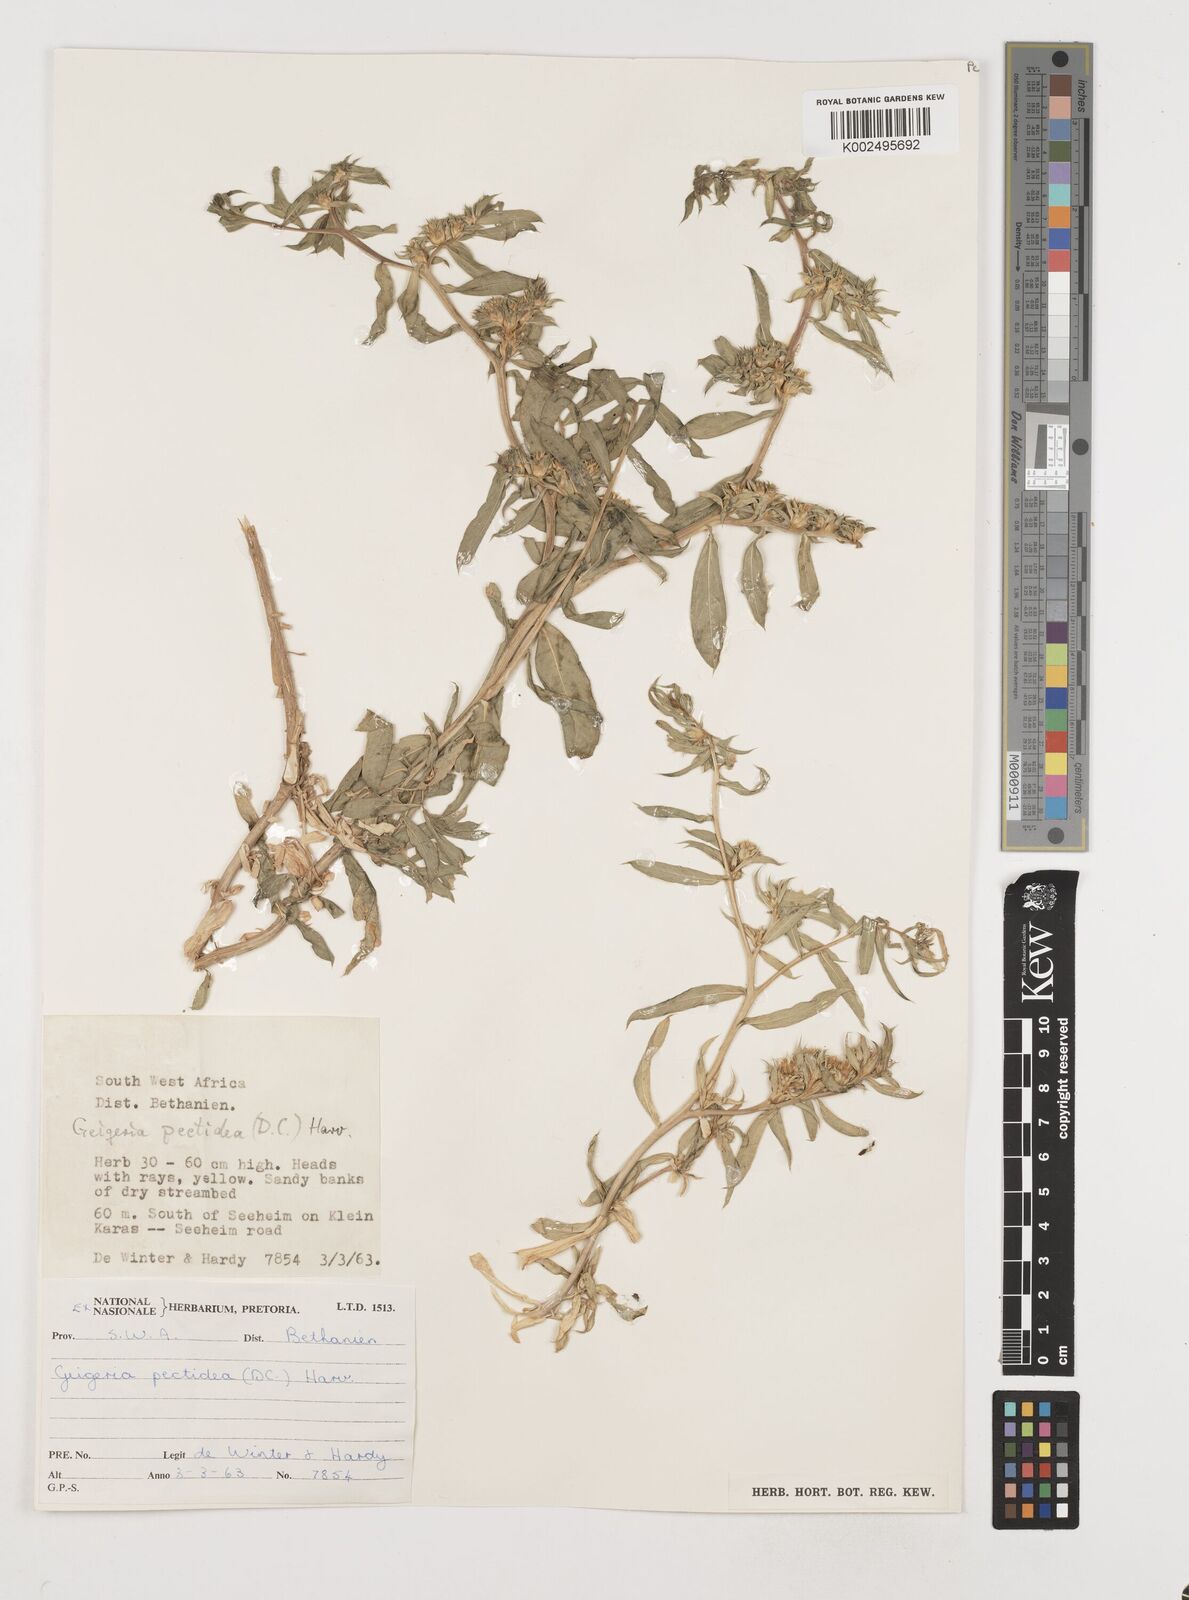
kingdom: Plantae
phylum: Tracheophyta
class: Magnoliopsida
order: Asterales
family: Asteraceae
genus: Geigeria
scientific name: Geigeria pectidea
